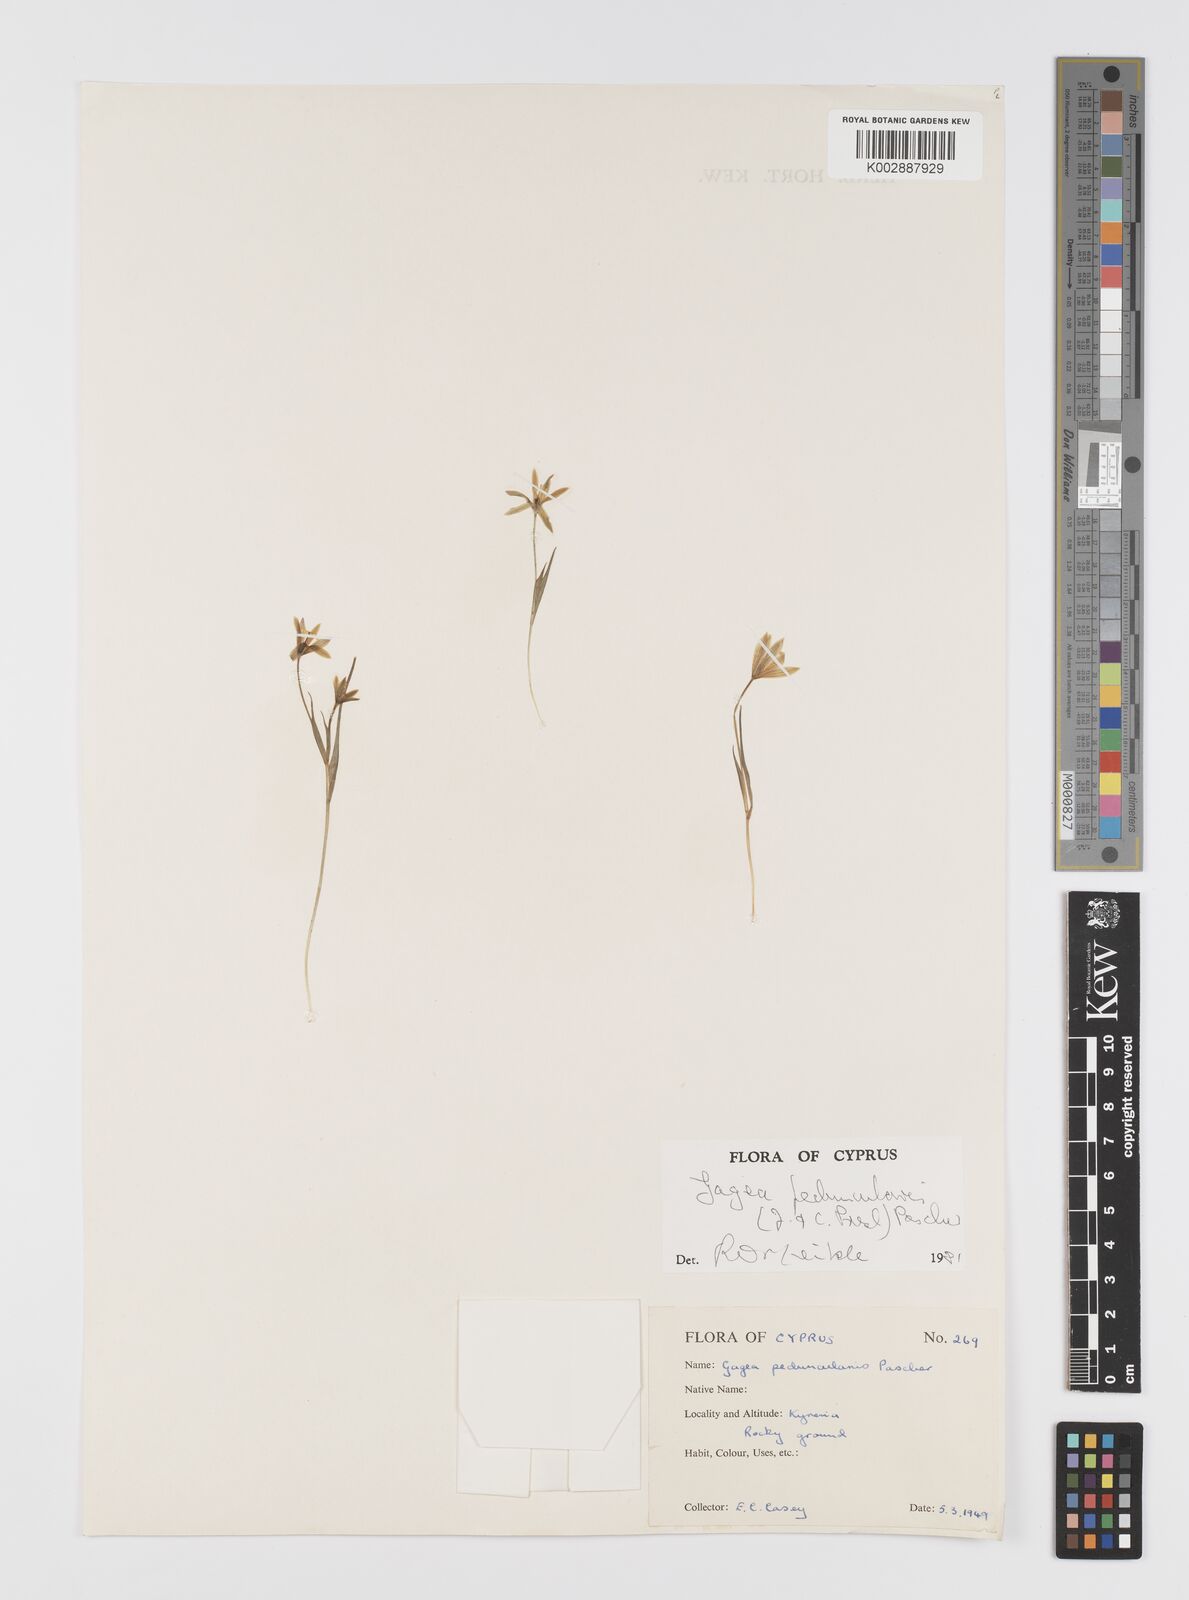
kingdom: Plantae
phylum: Tracheophyta
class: Liliopsida
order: Liliales
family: Liliaceae
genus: Gagea
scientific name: Gagea peduncularis
